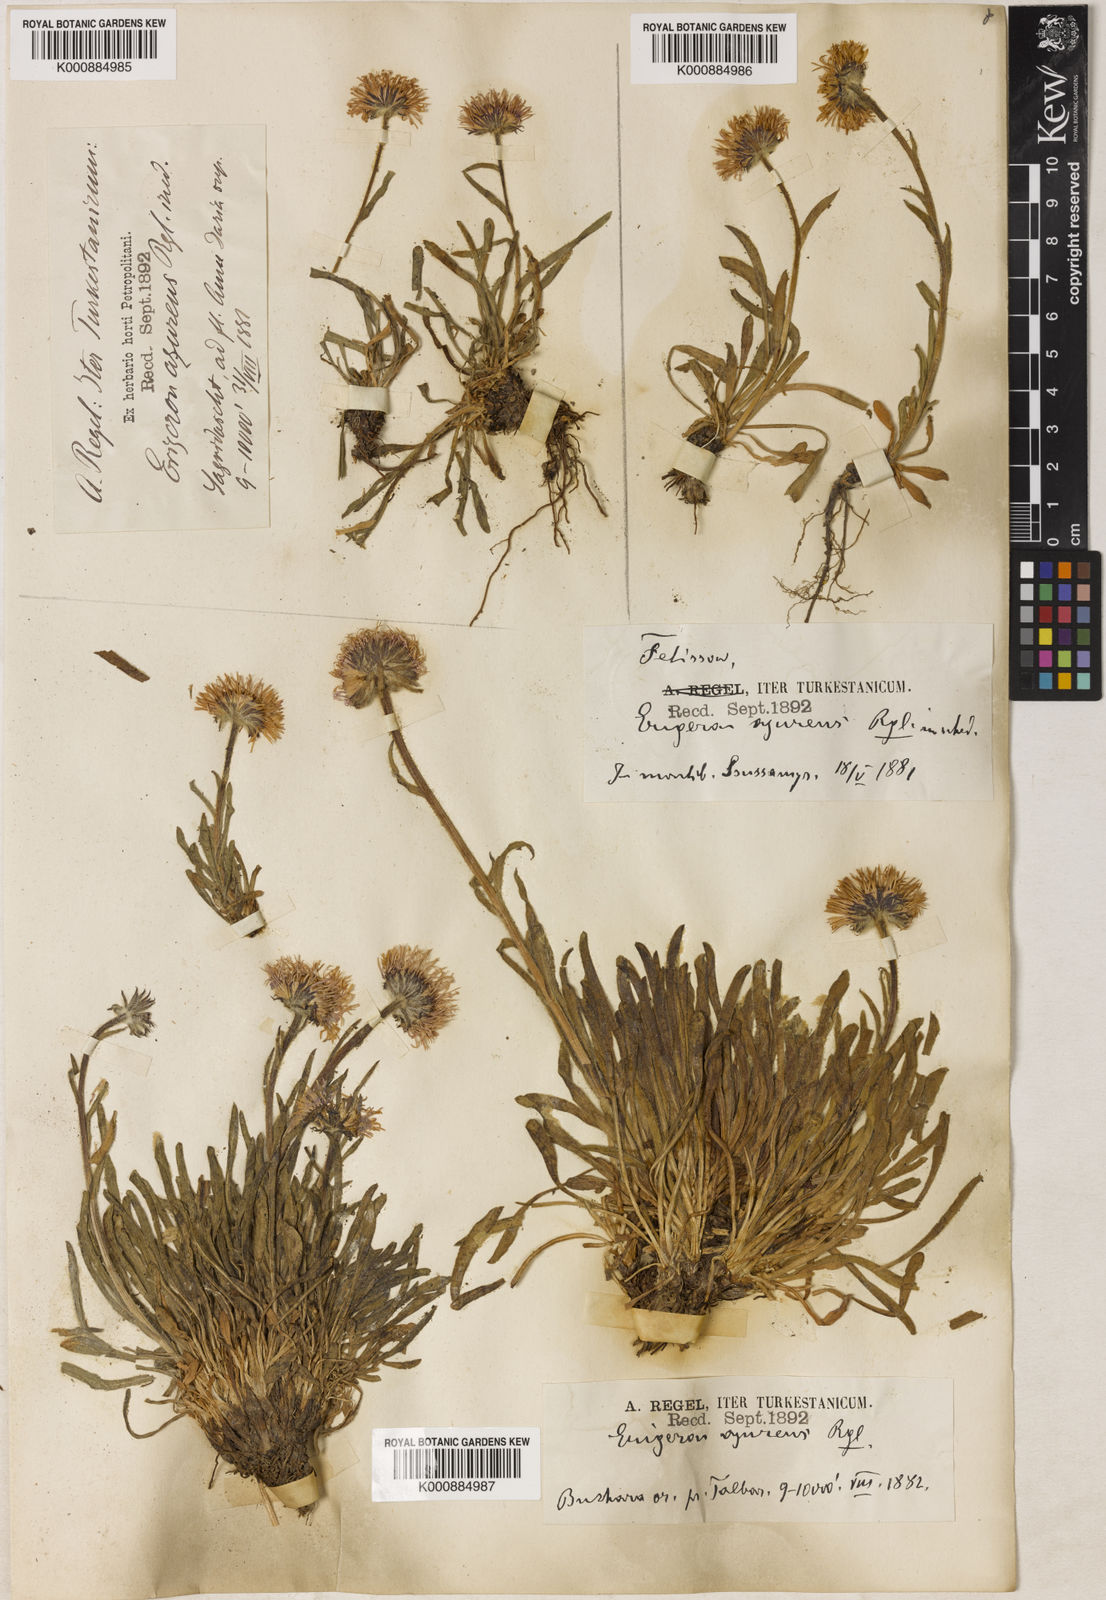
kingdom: Plantae
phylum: Tracheophyta
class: Magnoliopsida
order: Asterales
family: Asteraceae
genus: Erigeron
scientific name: Erigeron azureus
